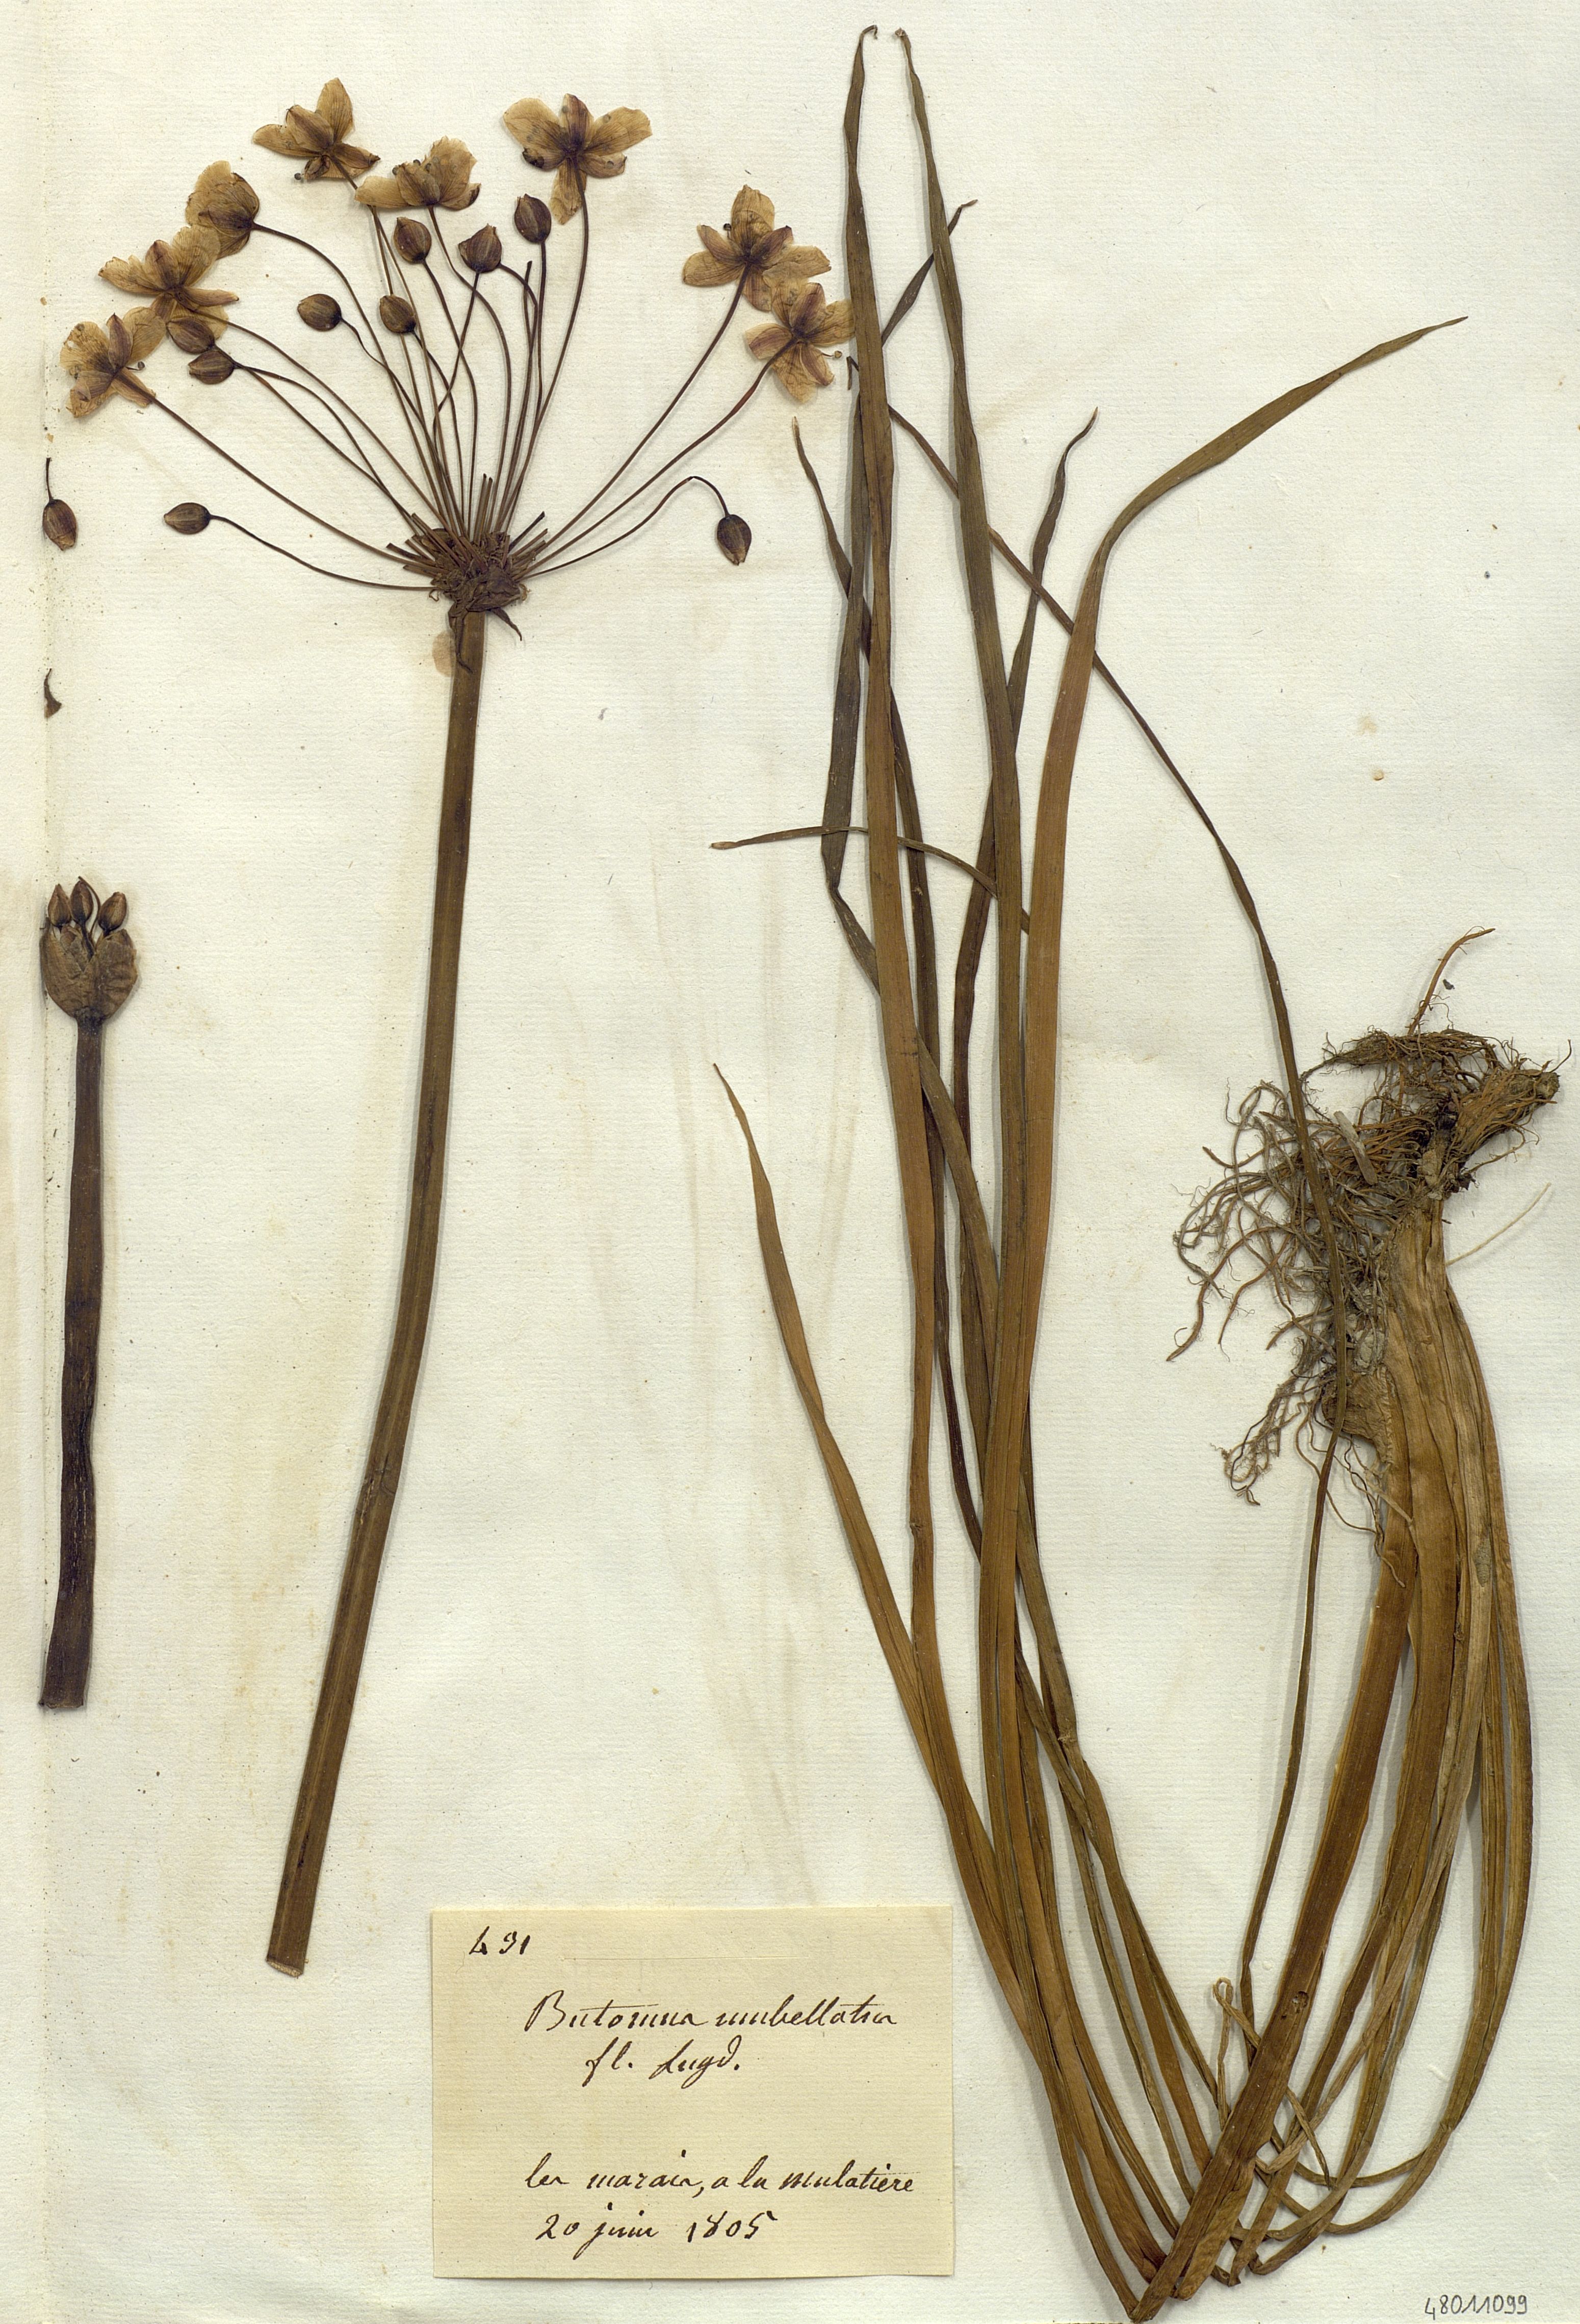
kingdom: Plantae
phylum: Tracheophyta
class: Liliopsida
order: Alismatales
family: Butomaceae
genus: Butomus
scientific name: Butomus umbellatus
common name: Flowering-rush
